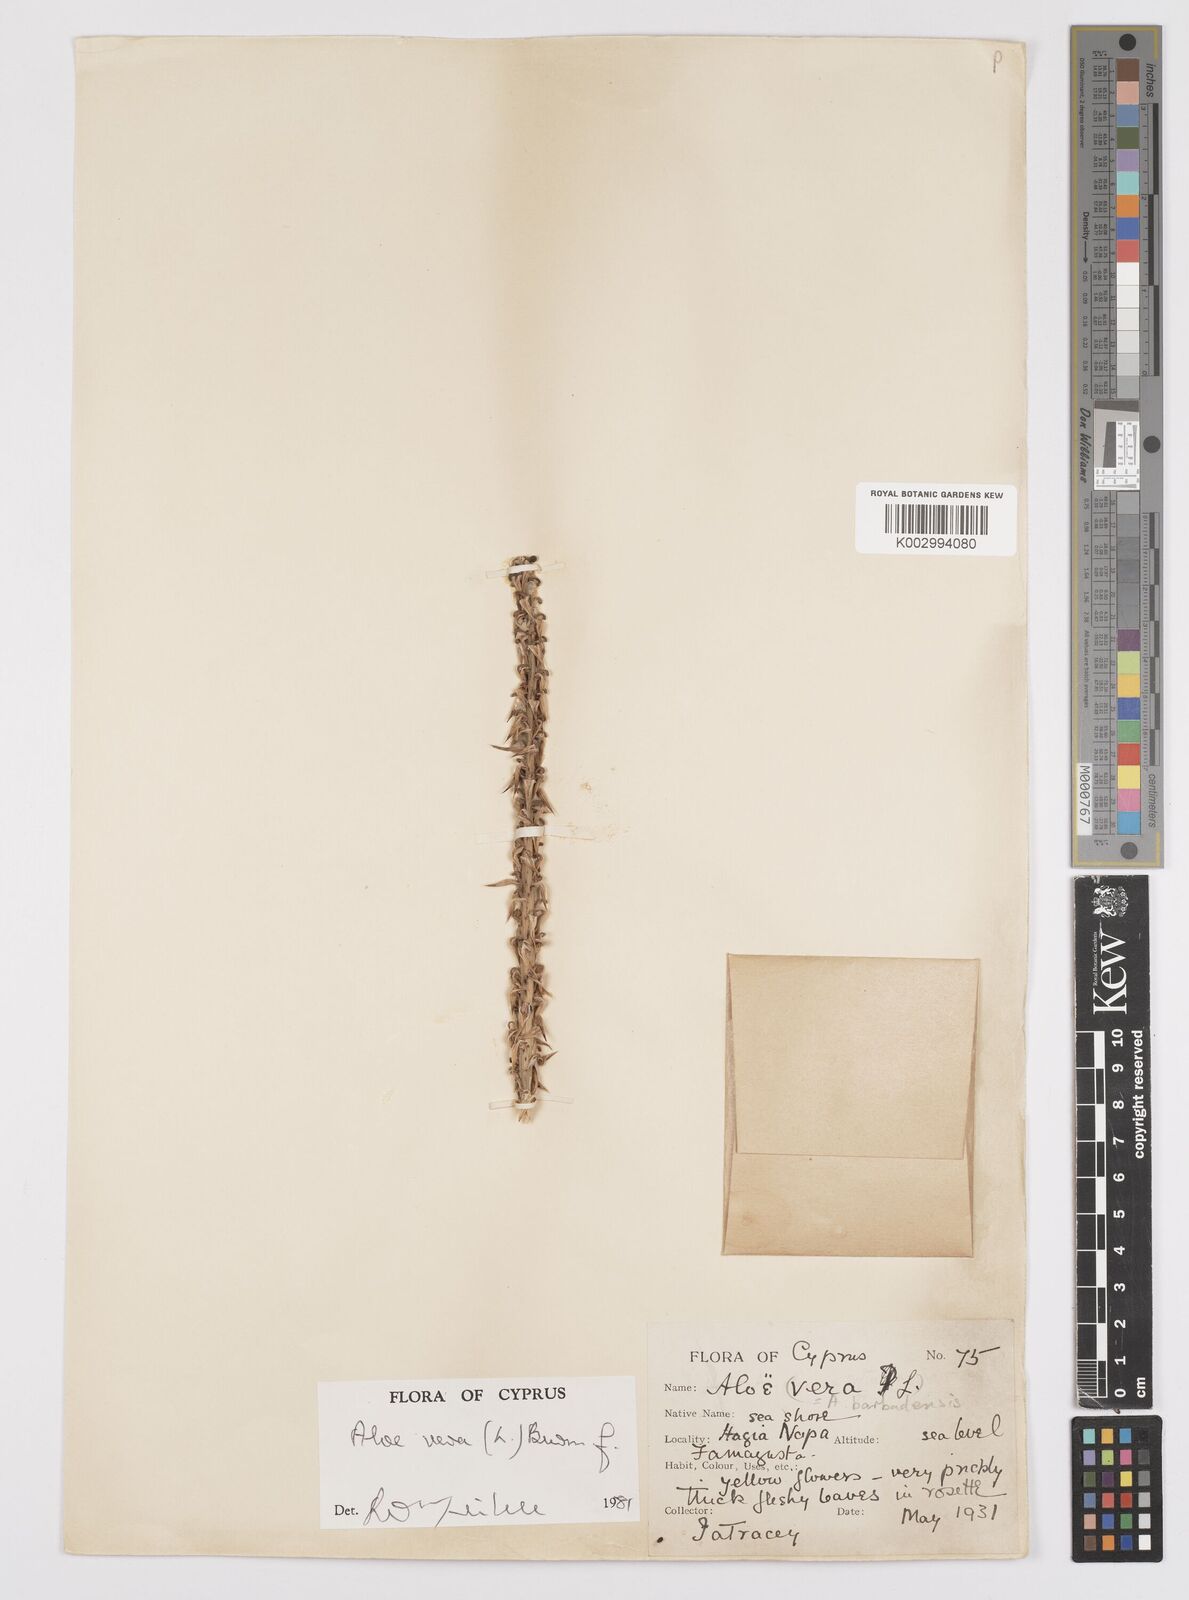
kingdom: Plantae
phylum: Tracheophyta
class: Liliopsida
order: Asparagales
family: Asphodelaceae
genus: Aloe
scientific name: Aloe vera
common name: Barbados aloe
